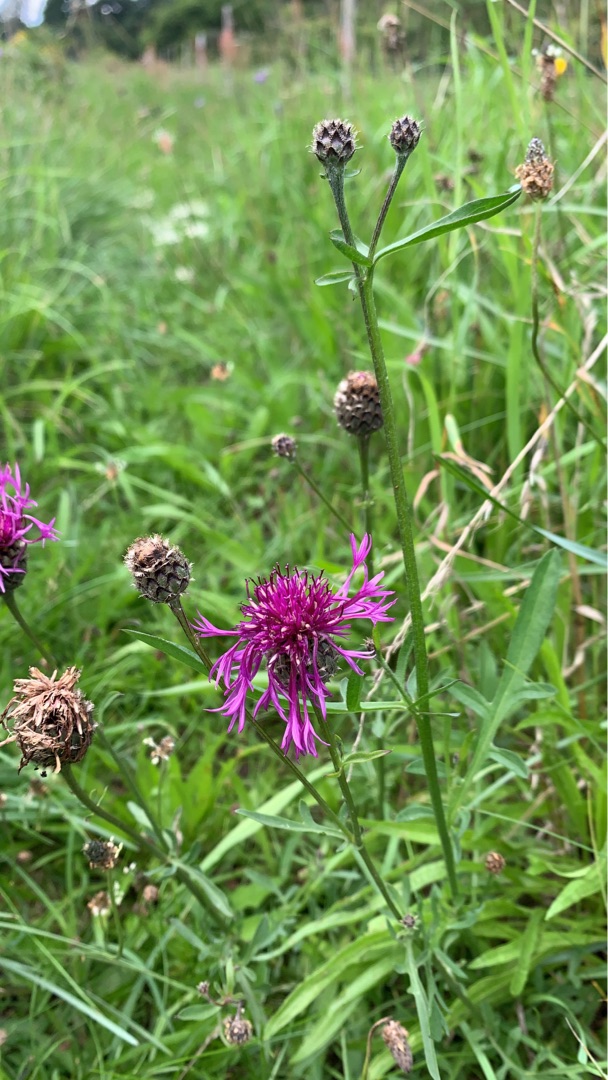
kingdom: Plantae
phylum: Tracheophyta
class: Magnoliopsida
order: Asterales
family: Asteraceae
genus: Centaurea
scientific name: Centaurea scabiosa
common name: Stor knopurt
